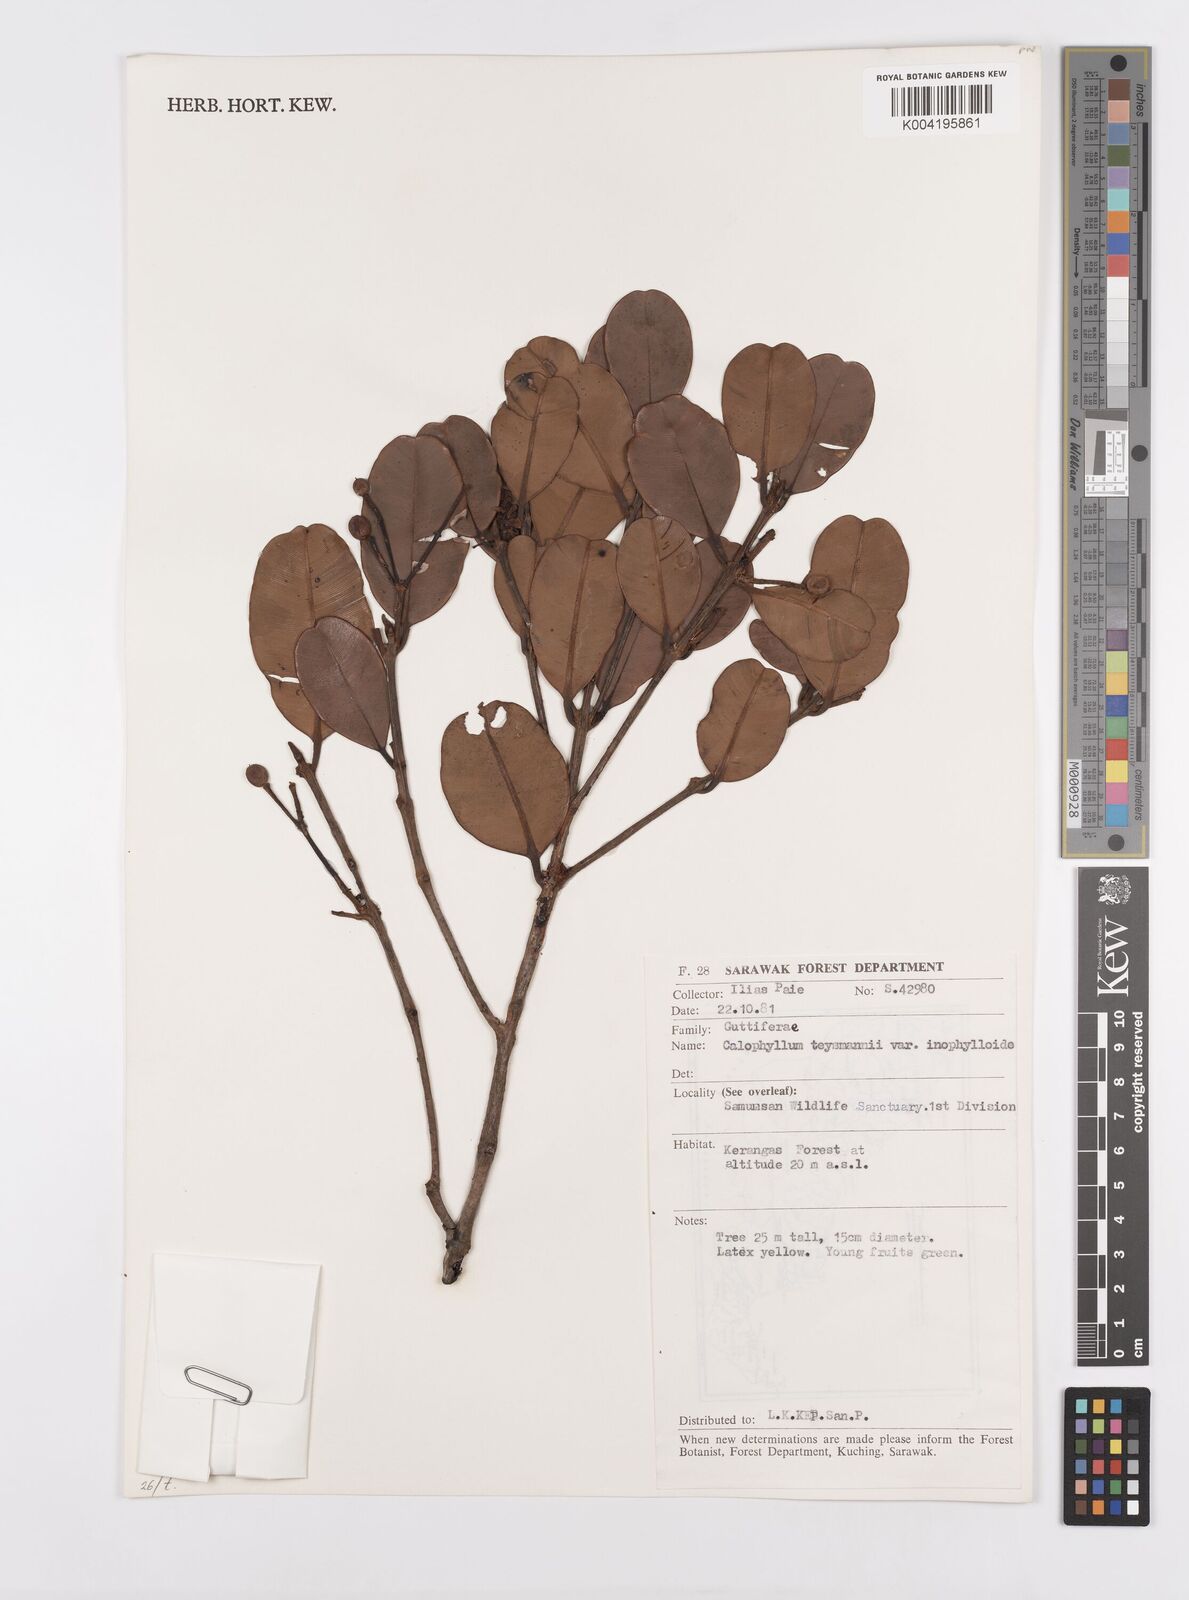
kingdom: Plantae
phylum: Tracheophyta
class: Magnoliopsida
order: Malpighiales
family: Calophyllaceae
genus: Calophyllum
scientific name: Calophyllum teysmannii
